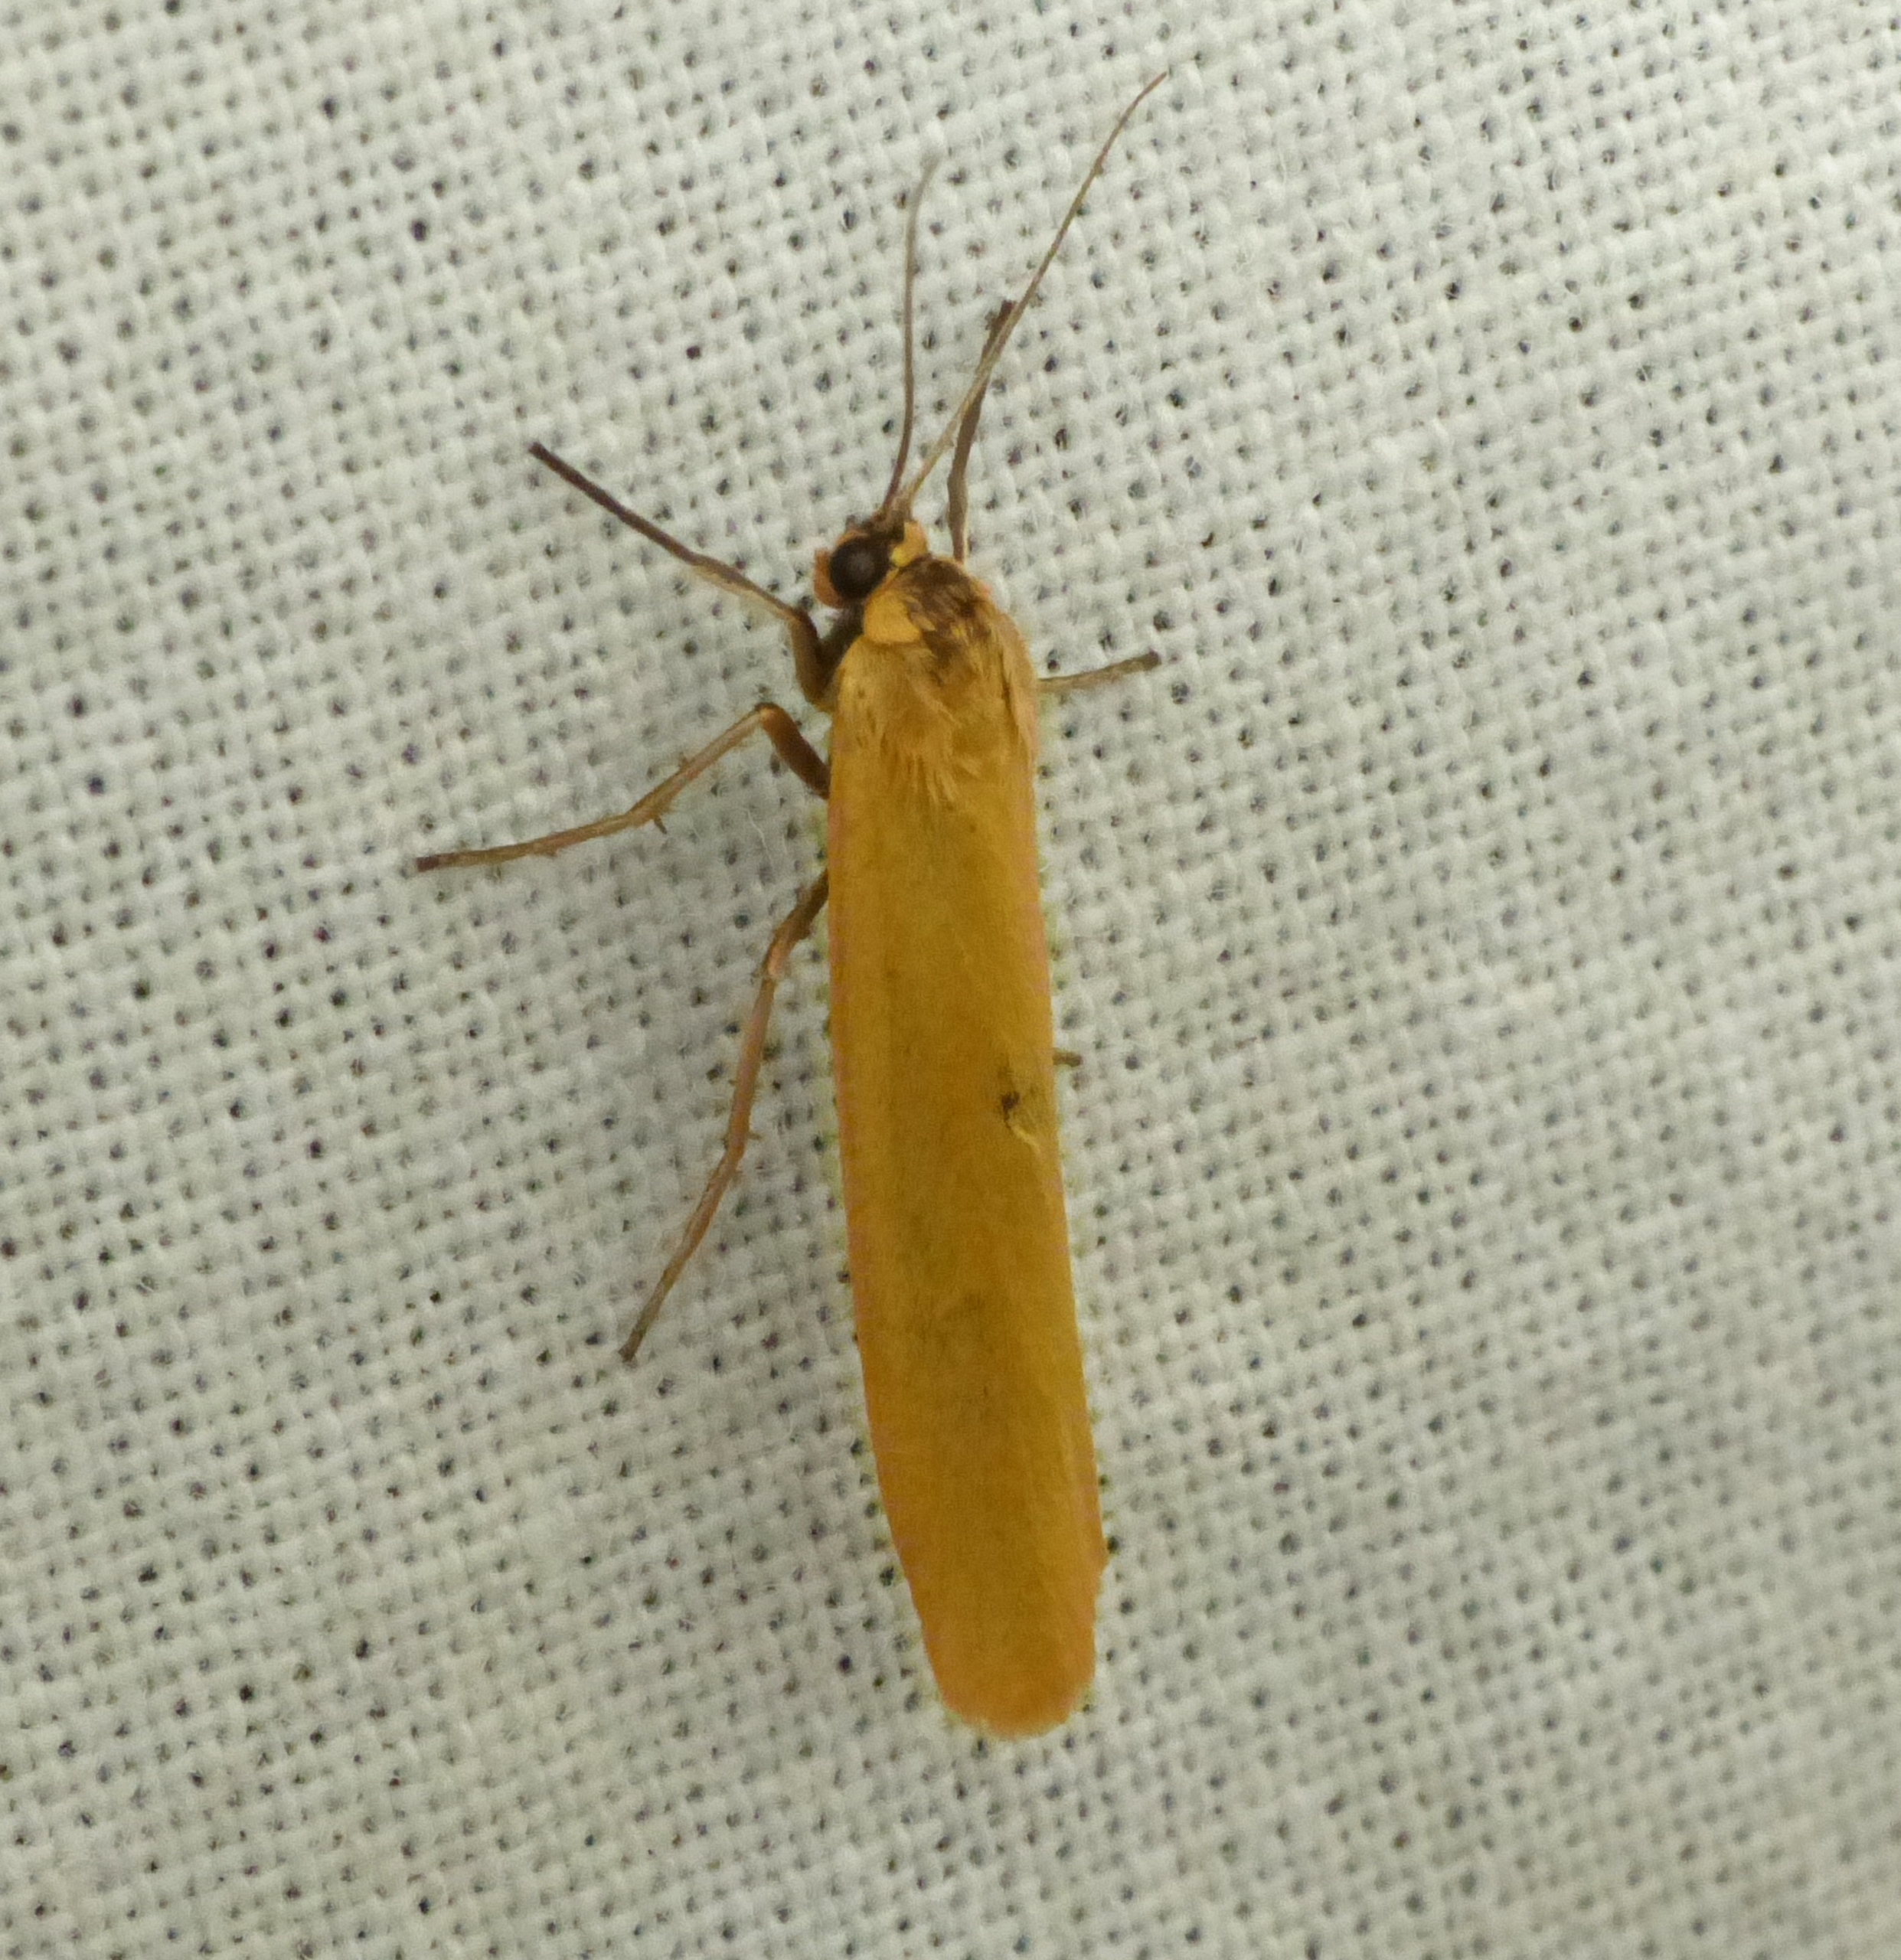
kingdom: Animalia
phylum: Arthropoda
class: Insecta
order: Lepidoptera
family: Erebidae
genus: Indalia
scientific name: Indalia lutarella
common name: Lergul lavspinder
